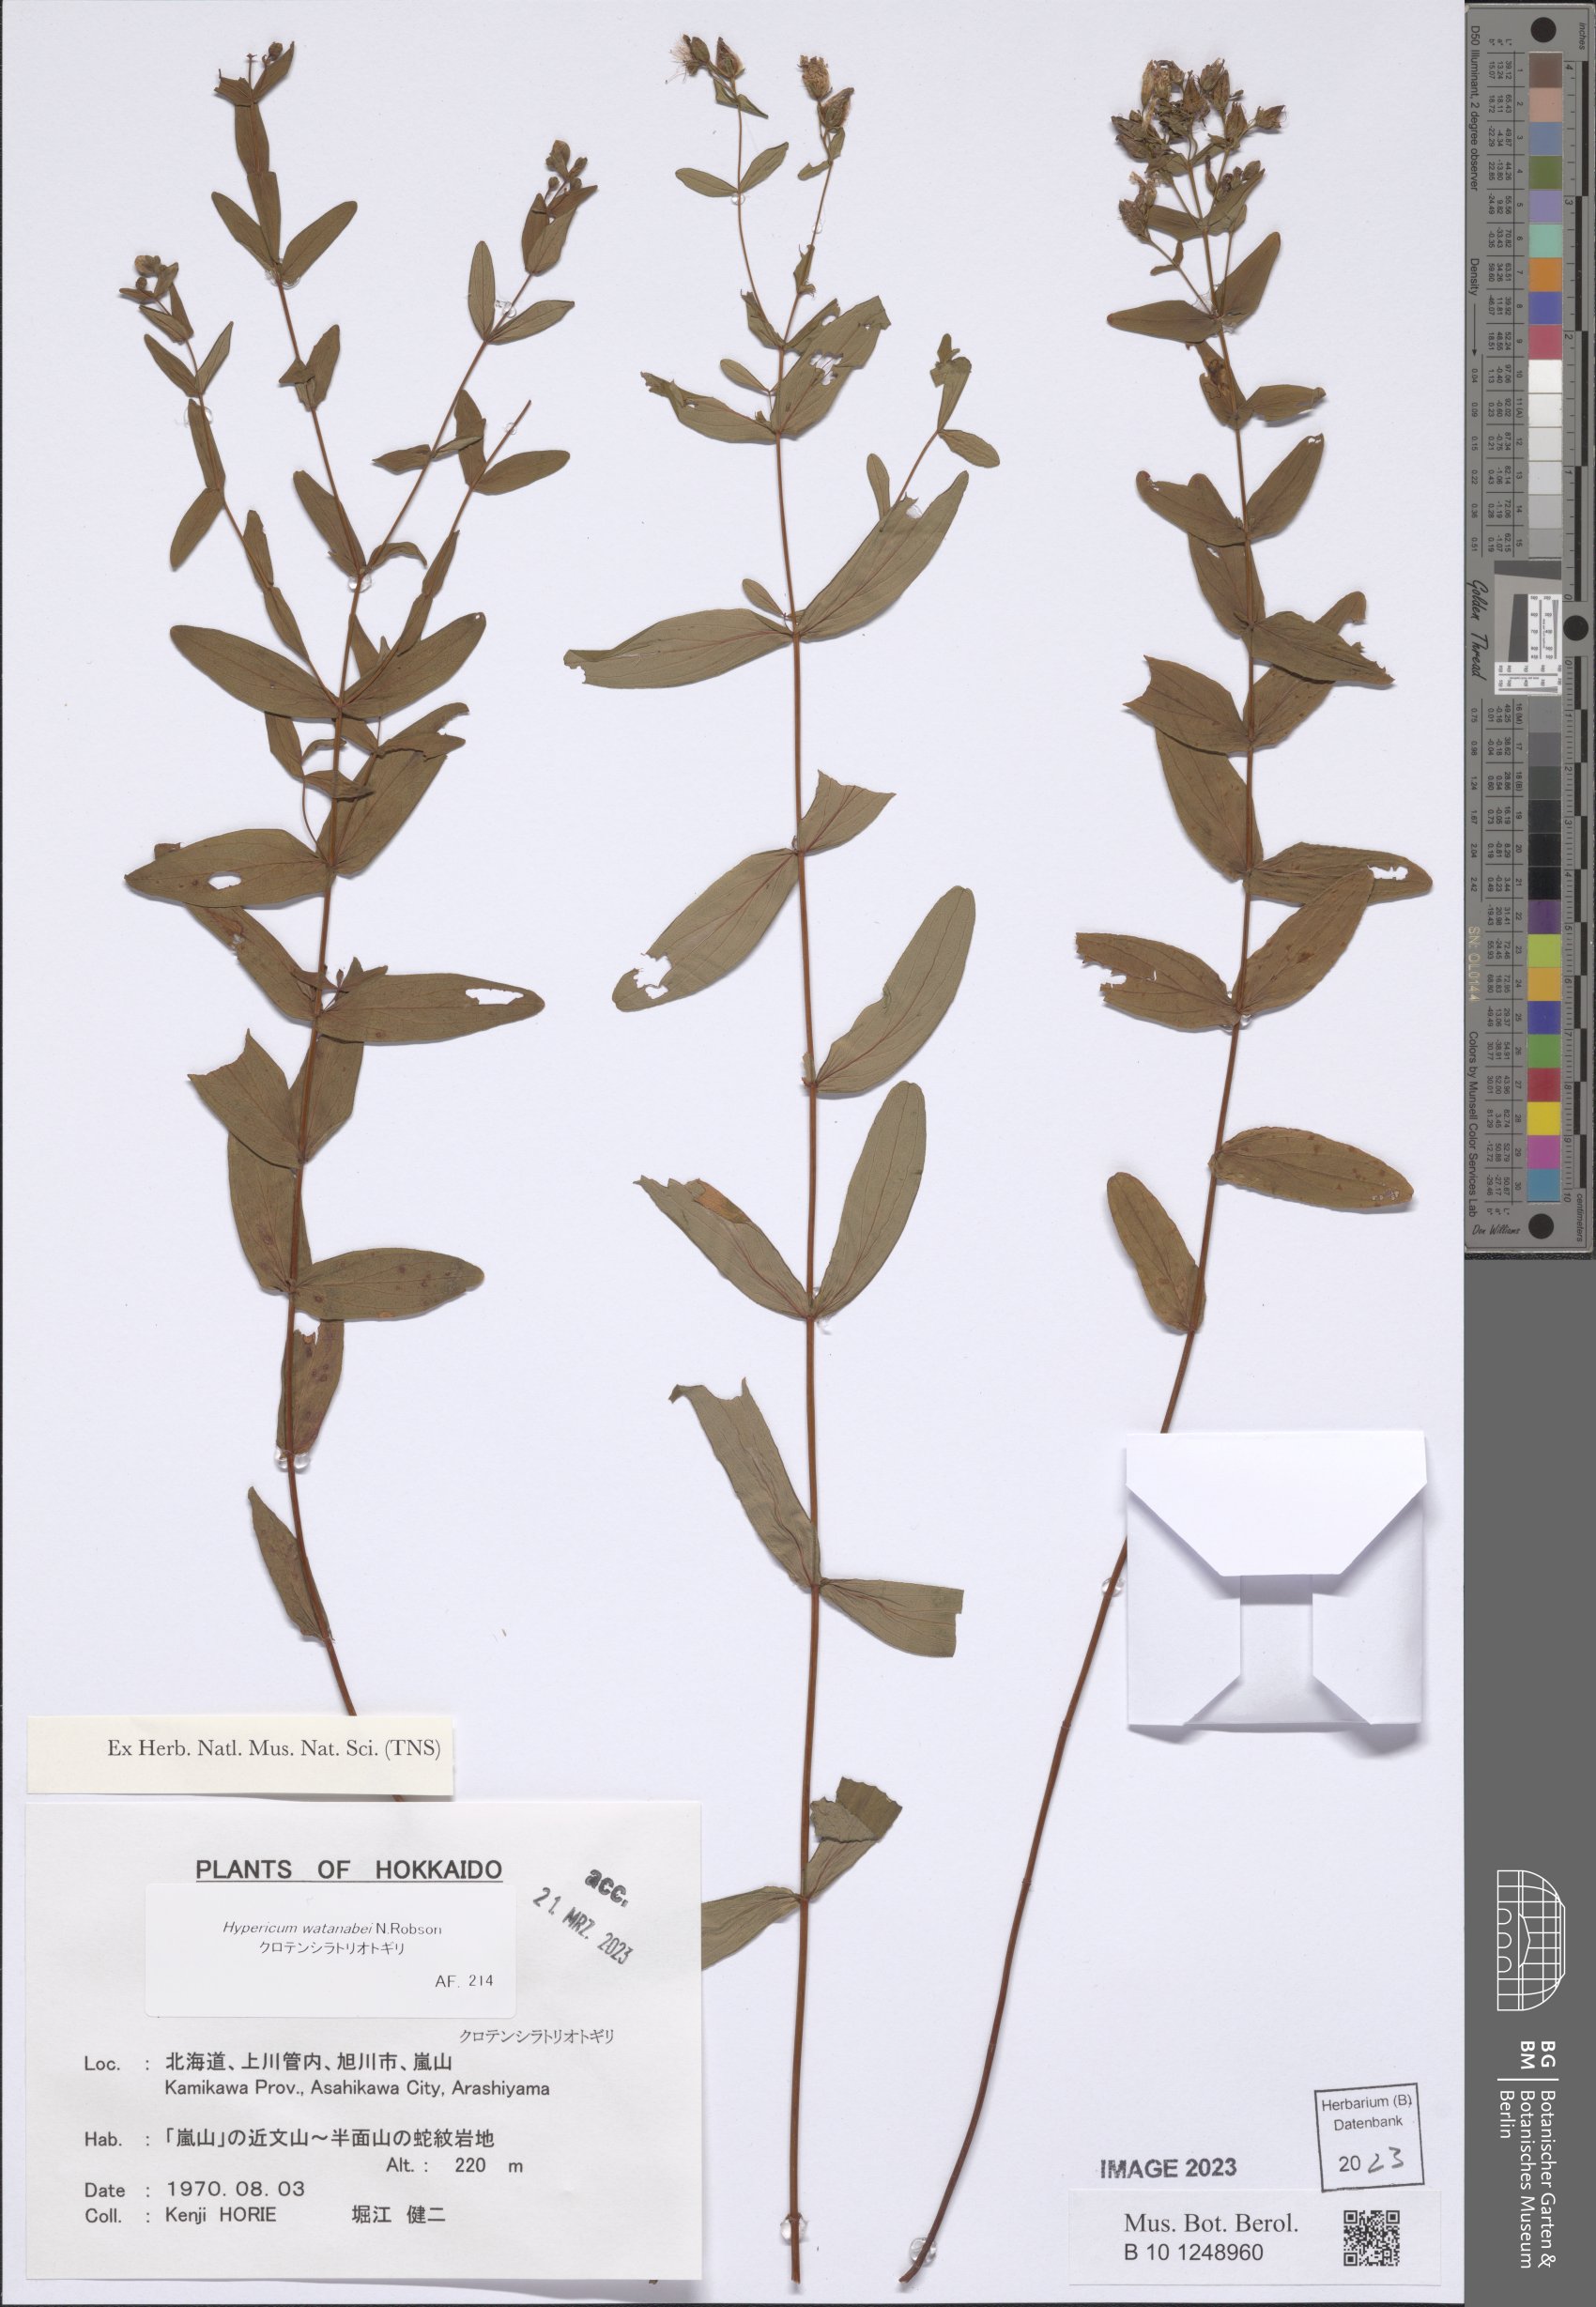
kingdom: Plantae
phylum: Tracheophyta
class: Magnoliopsida
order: Malpighiales
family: Hypericaceae
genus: Hypericum
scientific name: Hypericum watanabei
